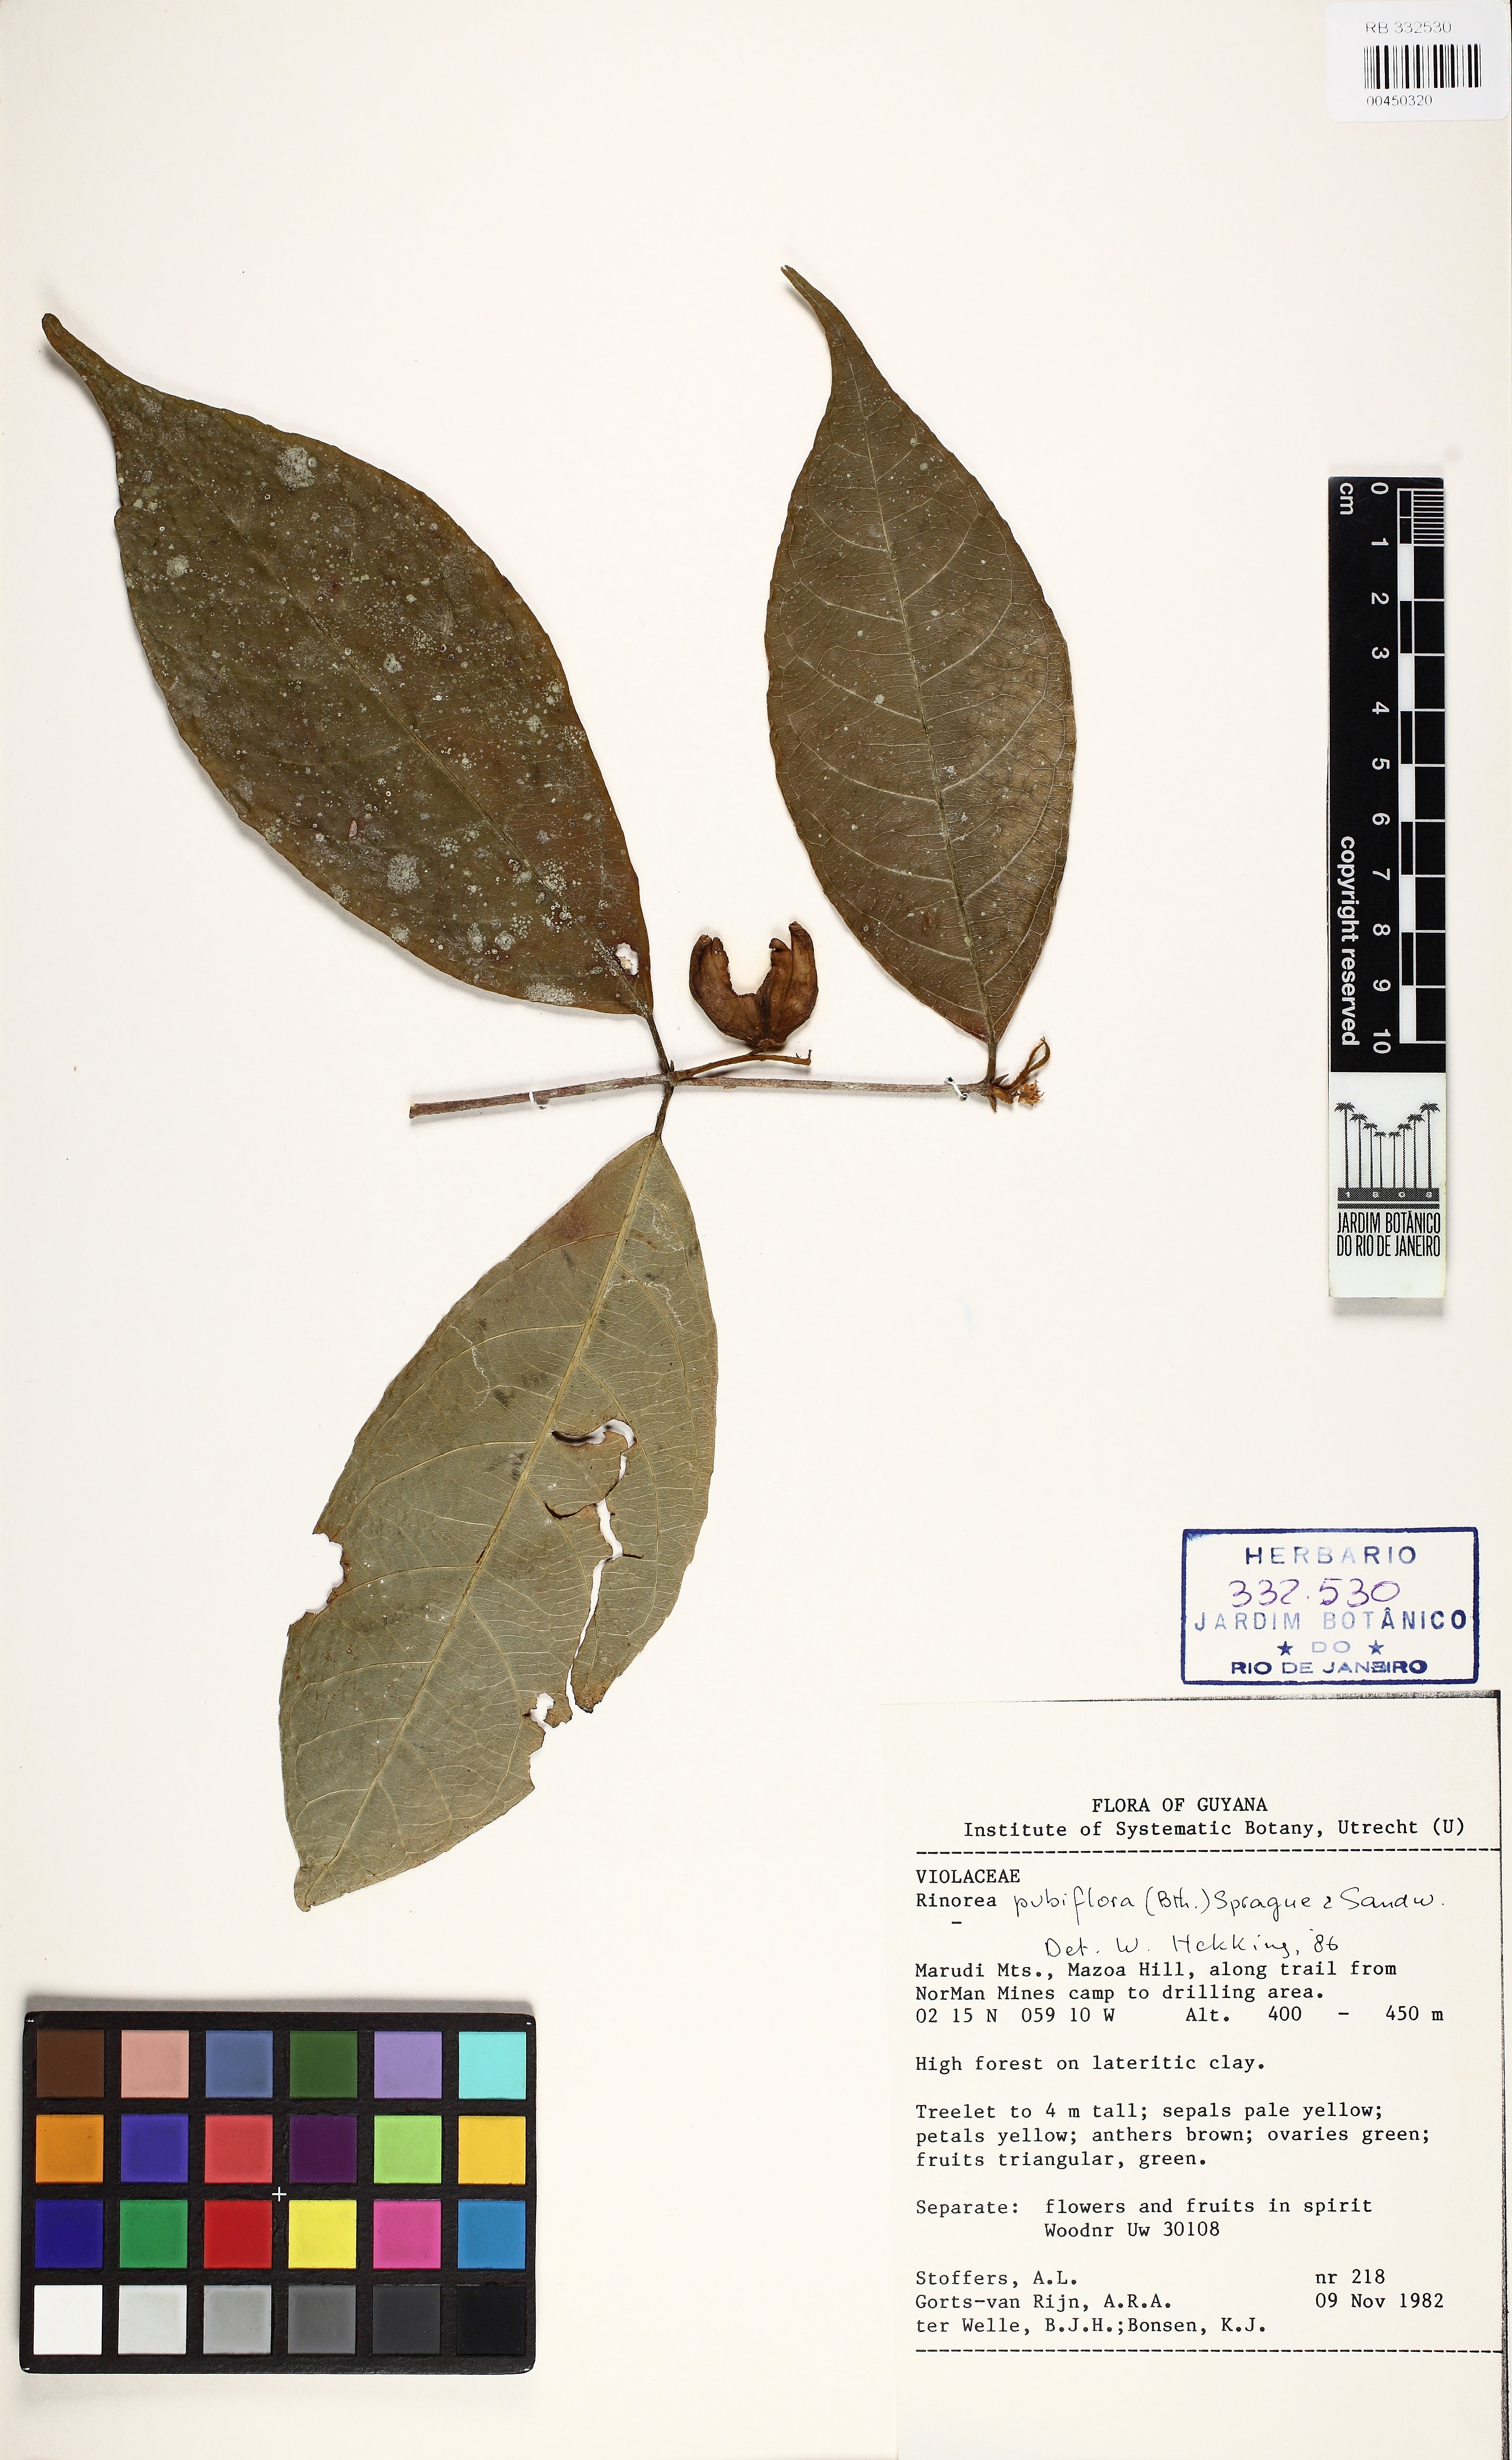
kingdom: Plantae
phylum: Tracheophyta
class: Magnoliopsida
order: Malpighiales
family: Violaceae
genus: Rinorea
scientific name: Rinorea pubiflora
